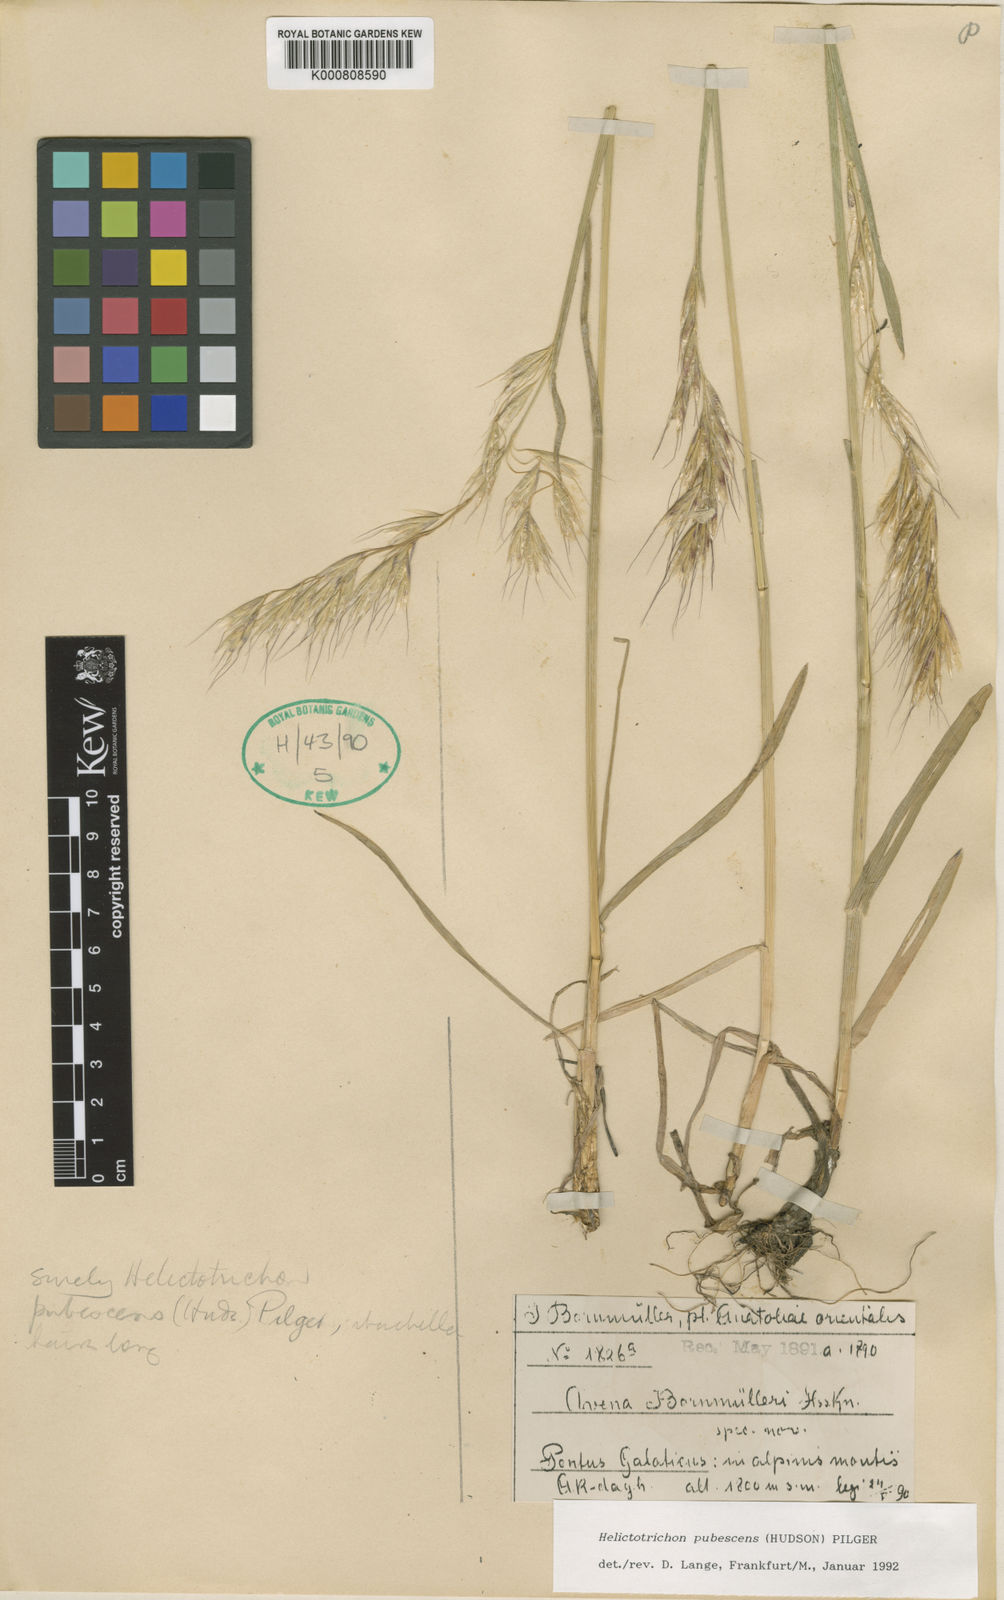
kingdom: Plantae
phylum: Tracheophyta
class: Liliopsida
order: Poales
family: Poaceae
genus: Avenula
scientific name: Avenula pubescens
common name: Downy alpine oatgrass
